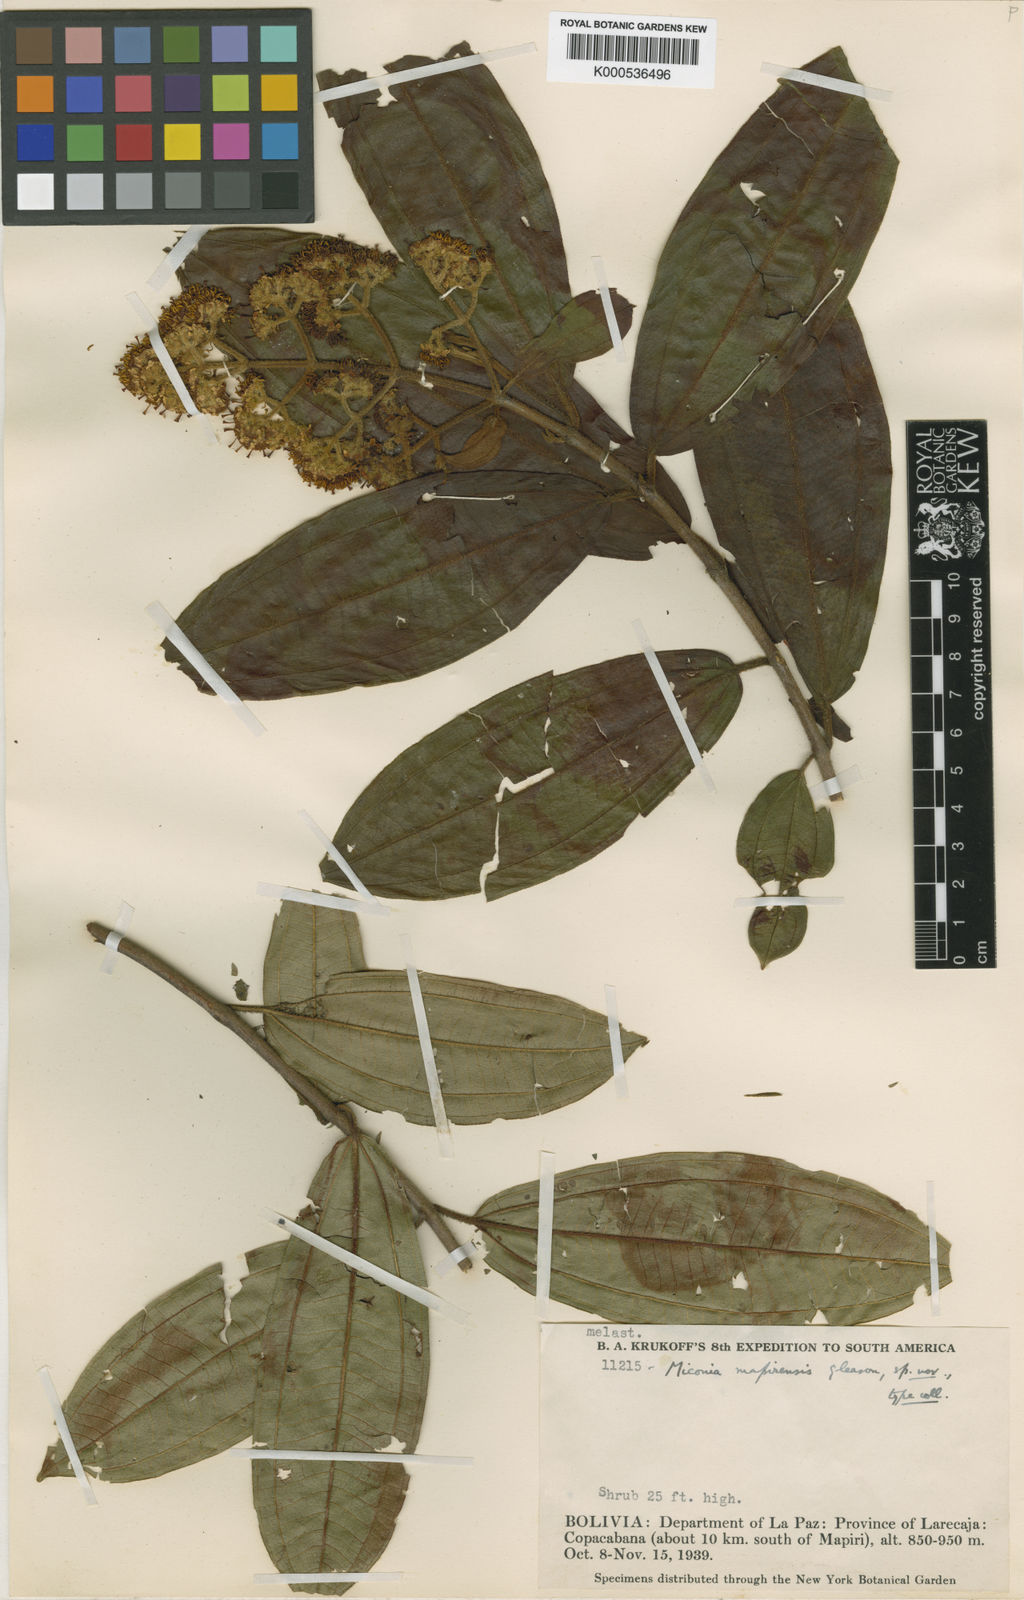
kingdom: Plantae
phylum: Tracheophyta
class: Magnoliopsida
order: Myrtales
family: Melastomataceae
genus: Miconia
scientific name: Miconia mapirensis
